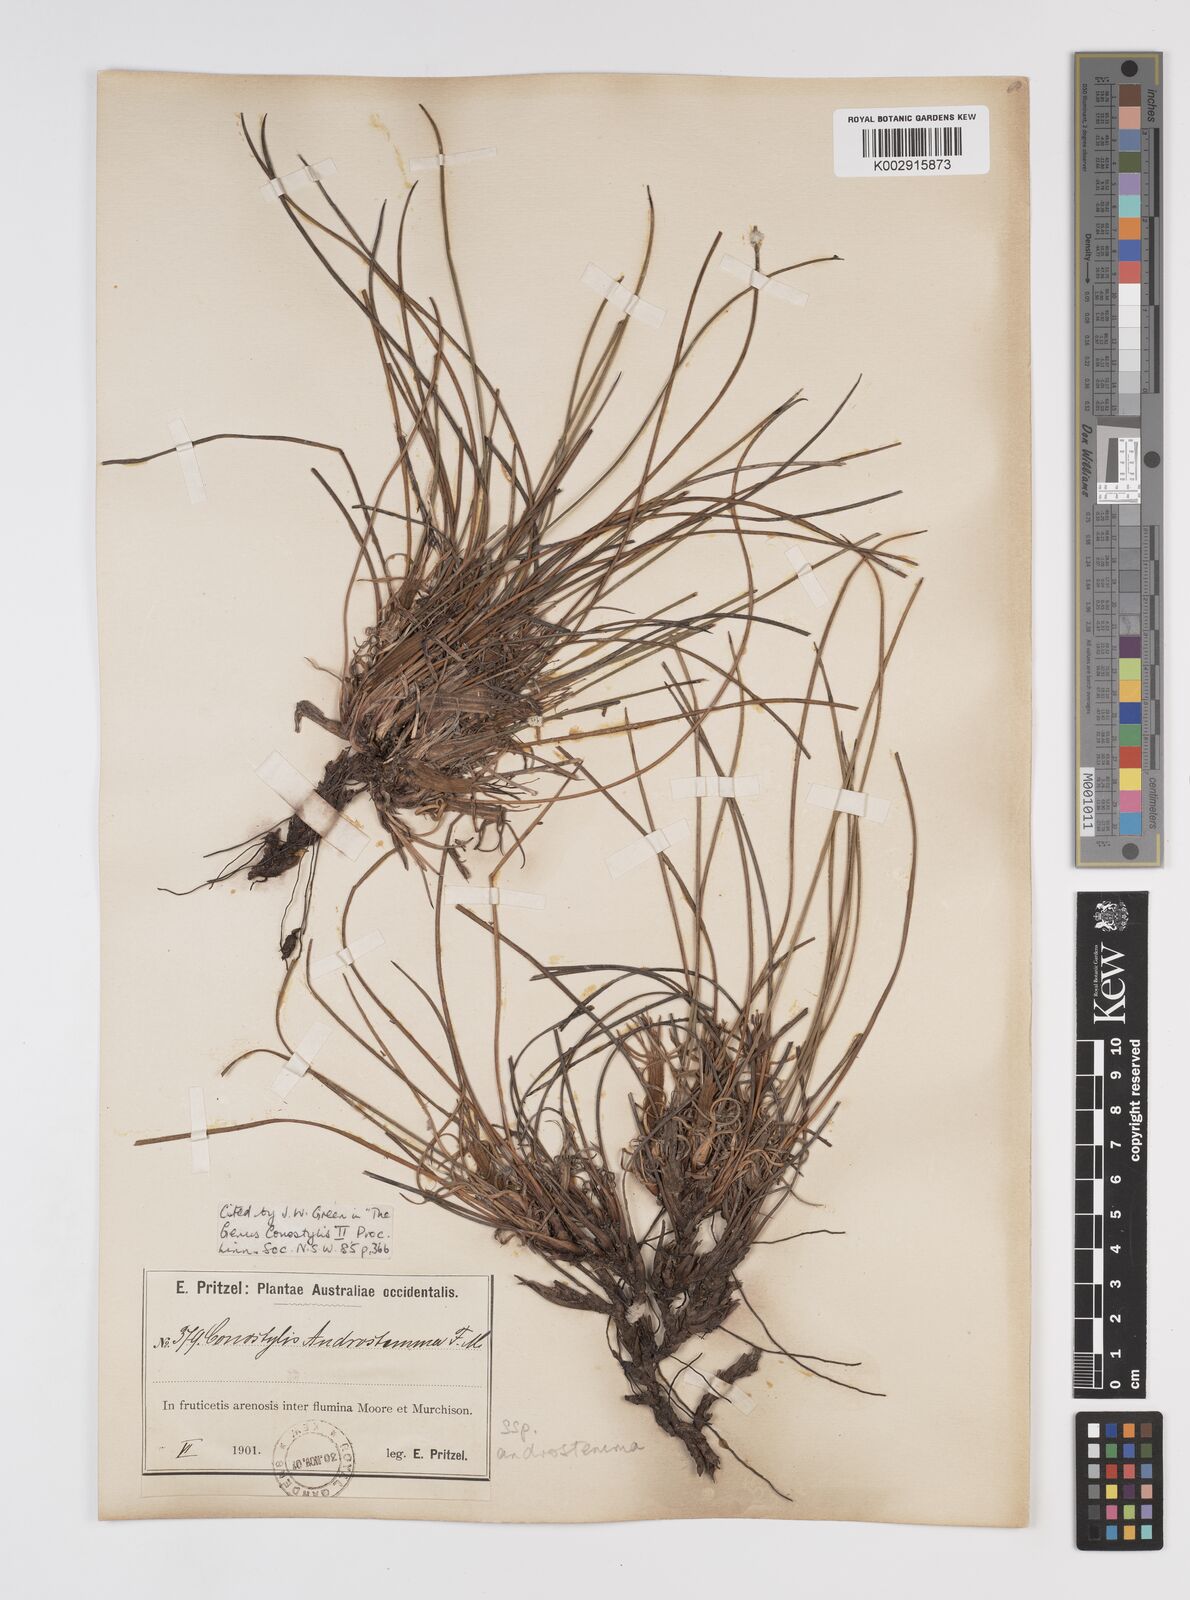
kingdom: Plantae
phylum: Tracheophyta
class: Liliopsida
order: Commelinales
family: Haemodoraceae
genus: Conostylis
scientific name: Conostylis androstemma
